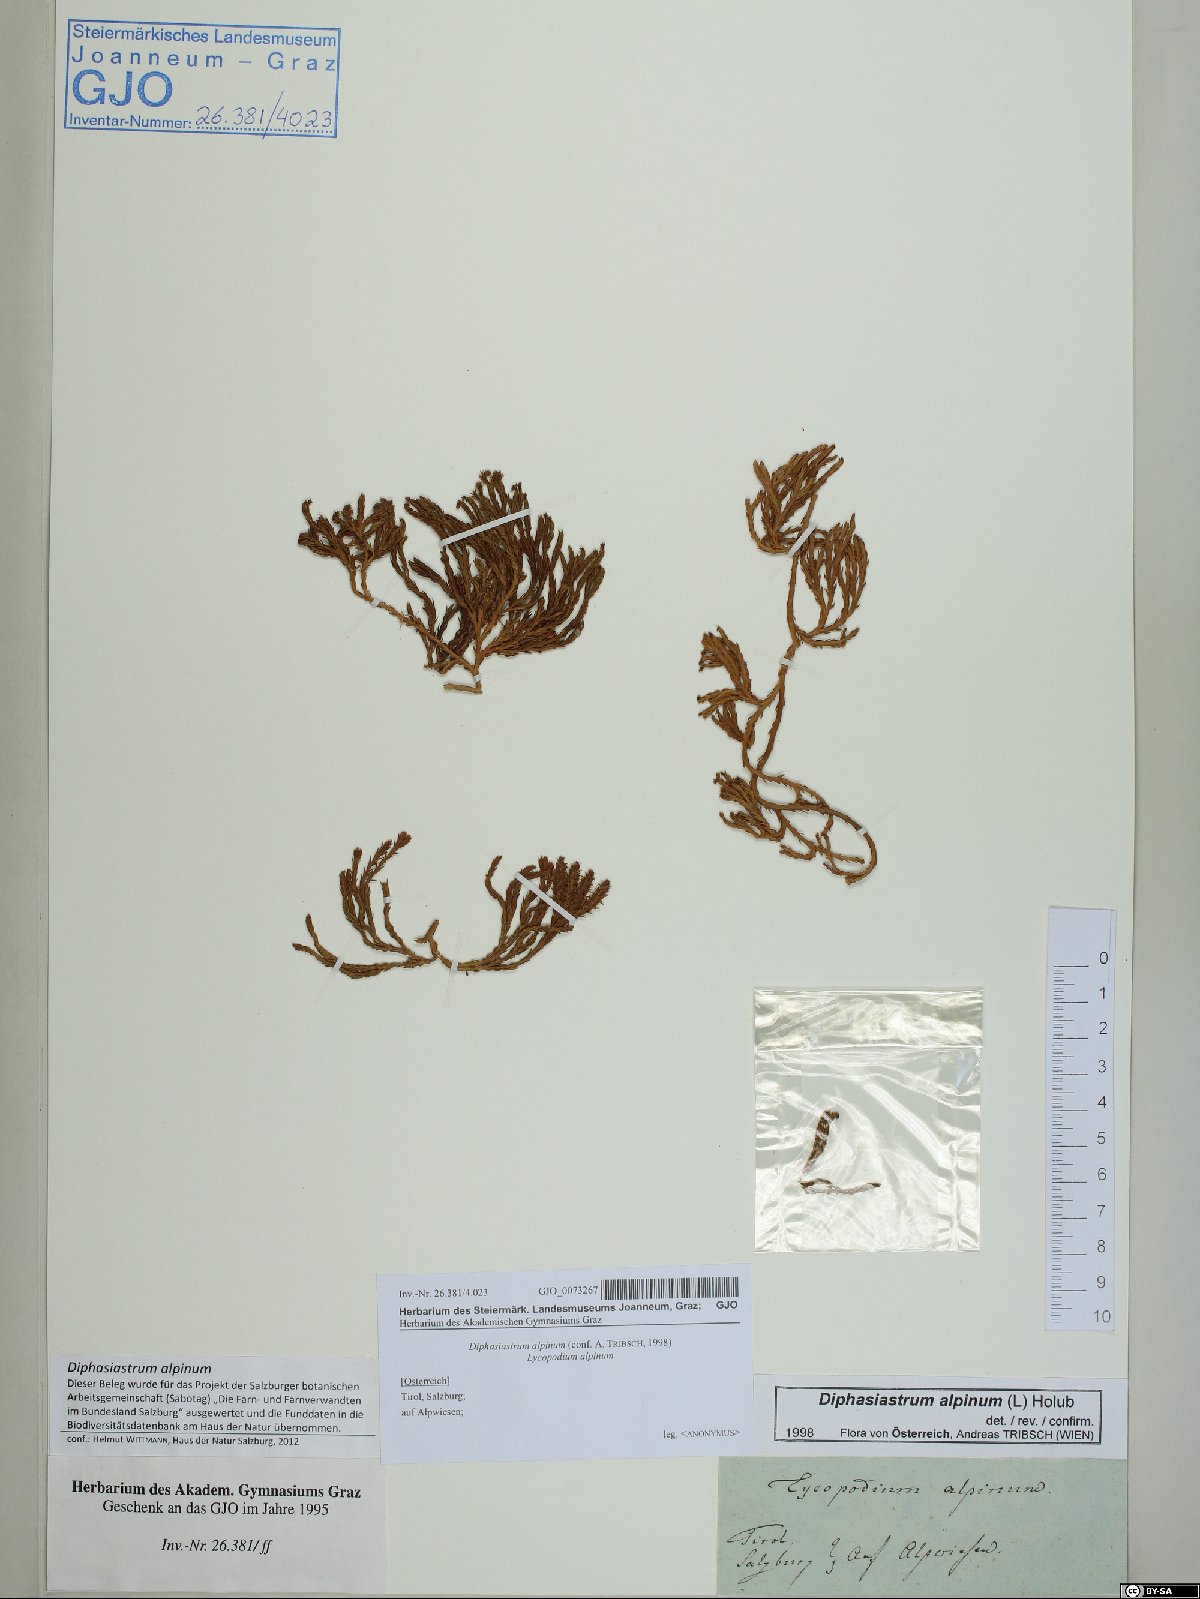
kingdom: Plantae
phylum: Tracheophyta
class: Lycopodiopsida
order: Lycopodiales
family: Lycopodiaceae
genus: Diphasiastrum
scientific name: Diphasiastrum alpinum
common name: Alpine clubmoss
